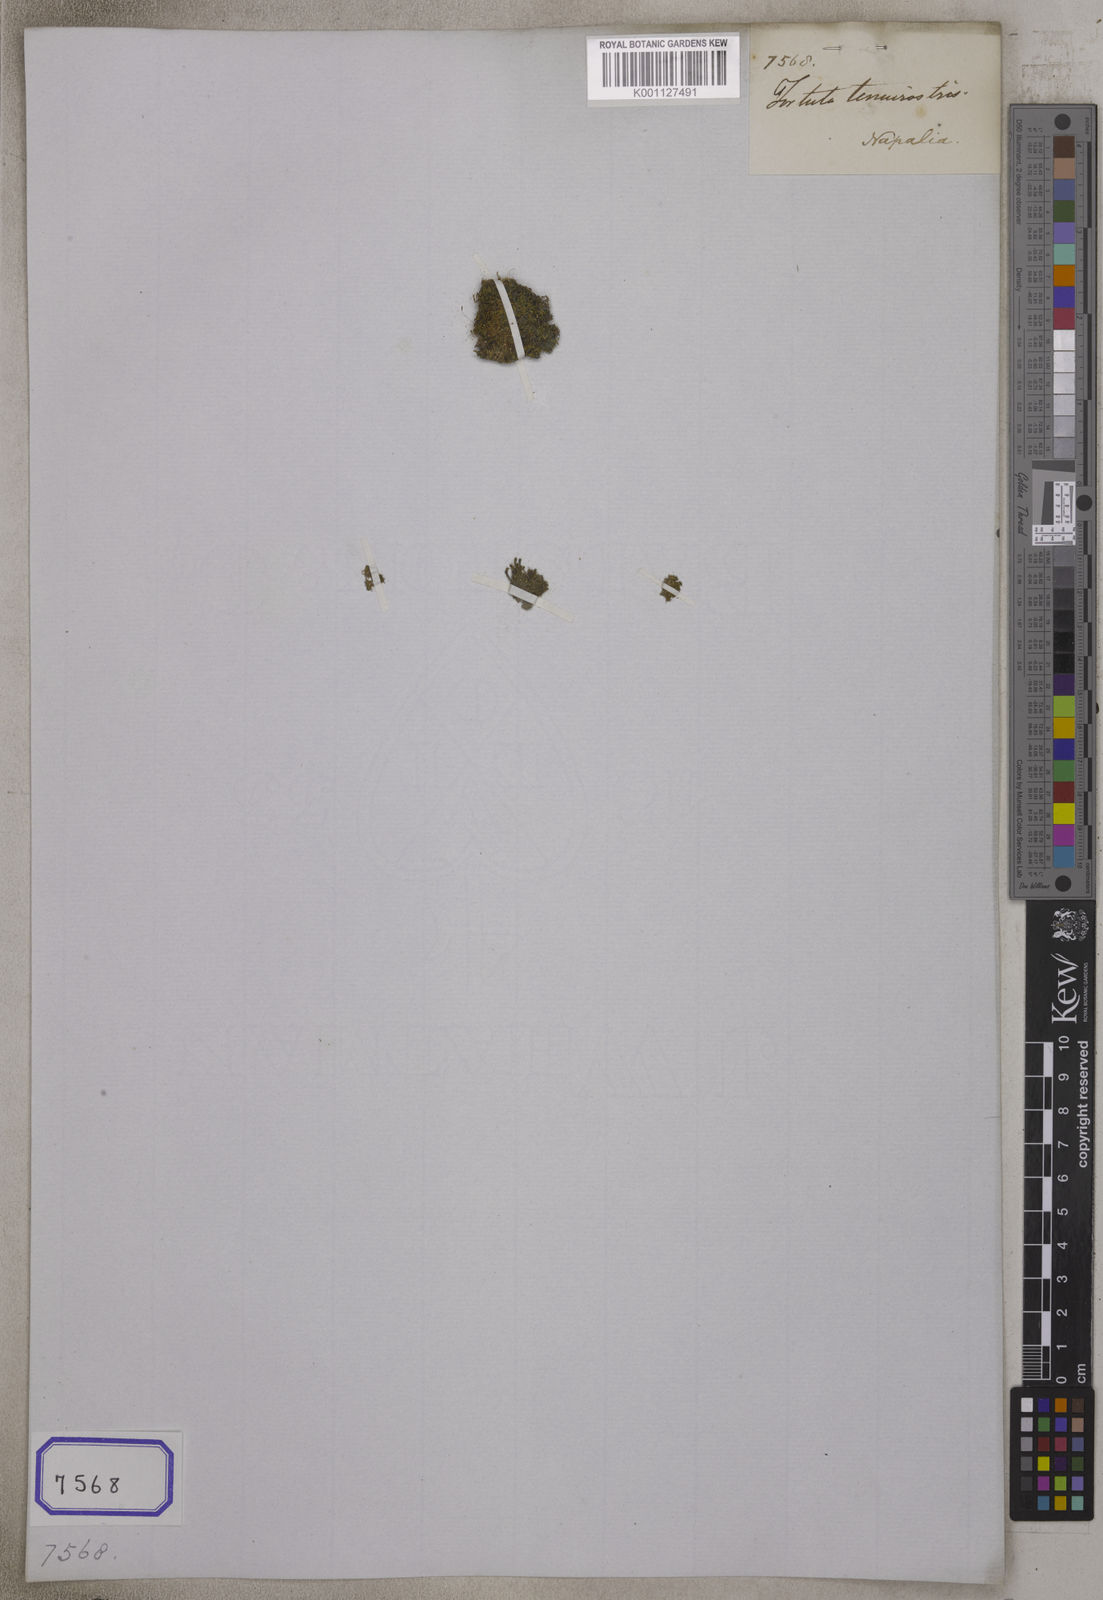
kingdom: Plantae
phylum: Bryophyta
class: Bryopsida
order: Hypnales
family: Meteoriaceae
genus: Tortula
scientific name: Tortula
